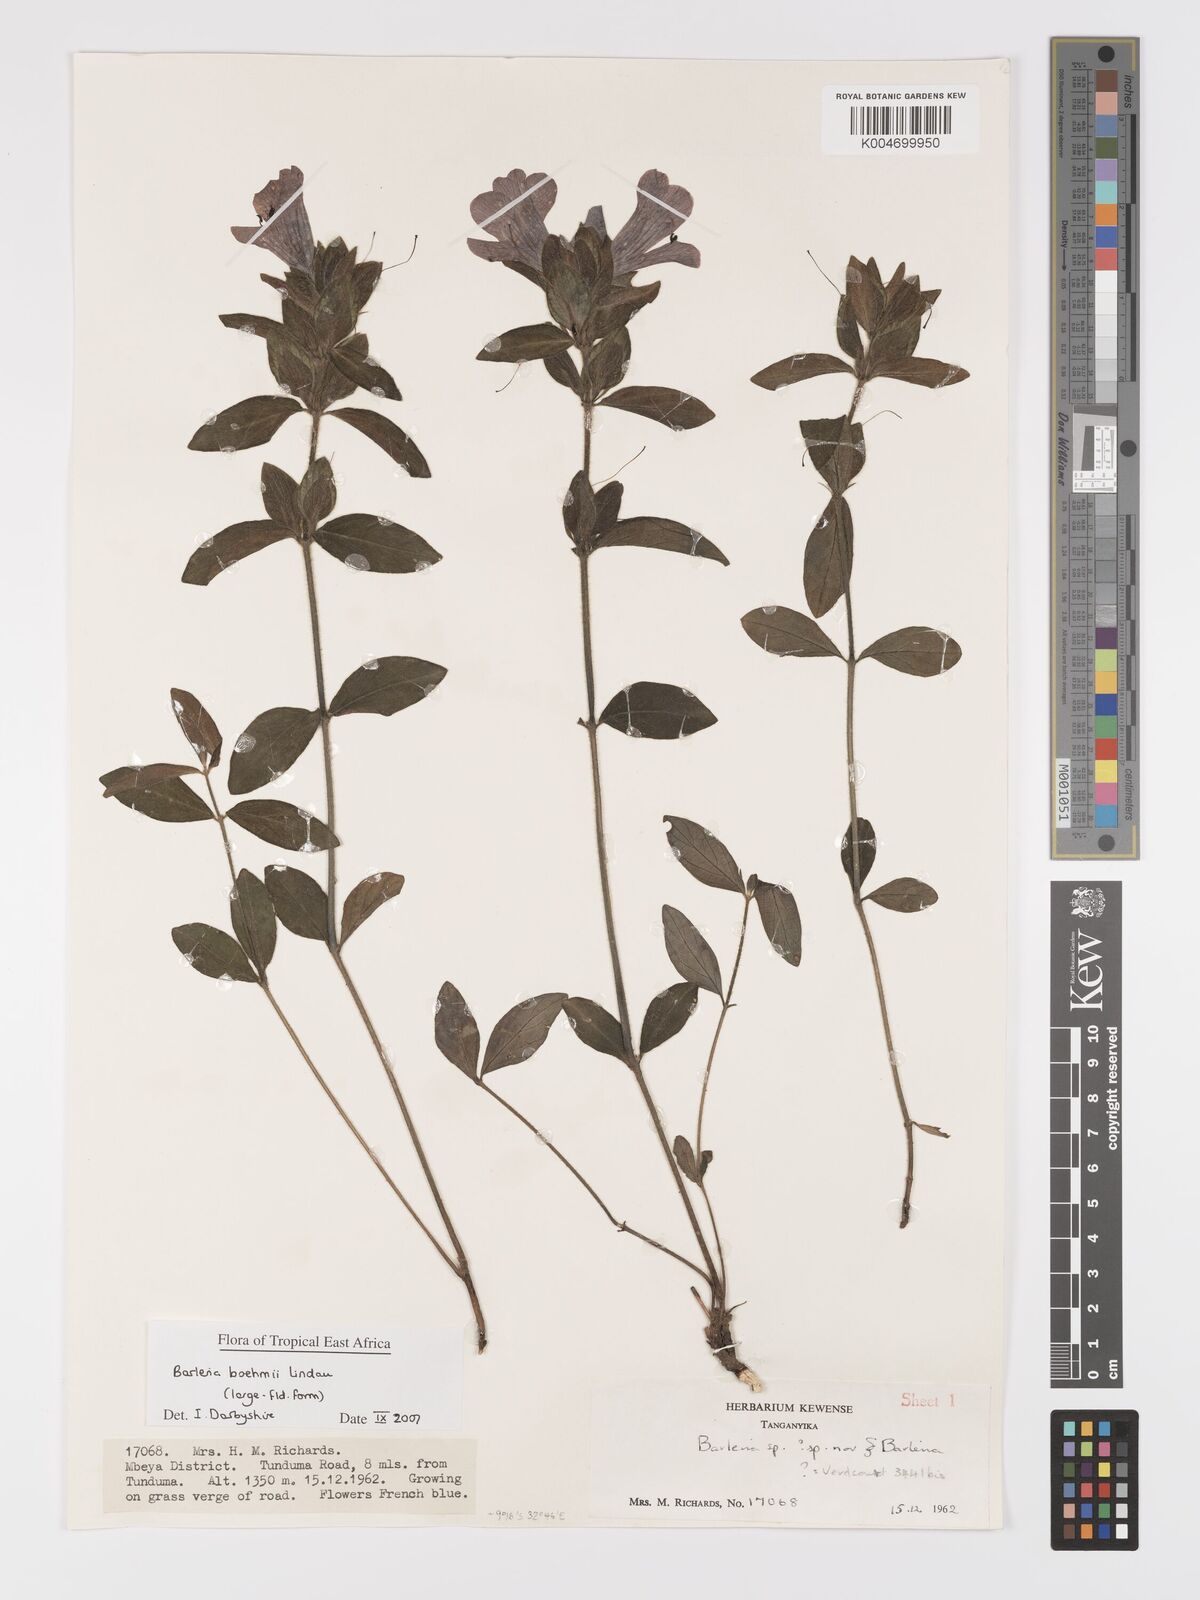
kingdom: Plantae
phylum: Tracheophyta
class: Magnoliopsida
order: Lamiales
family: Acanthaceae
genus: Barleria
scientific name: Barleria boehmii
